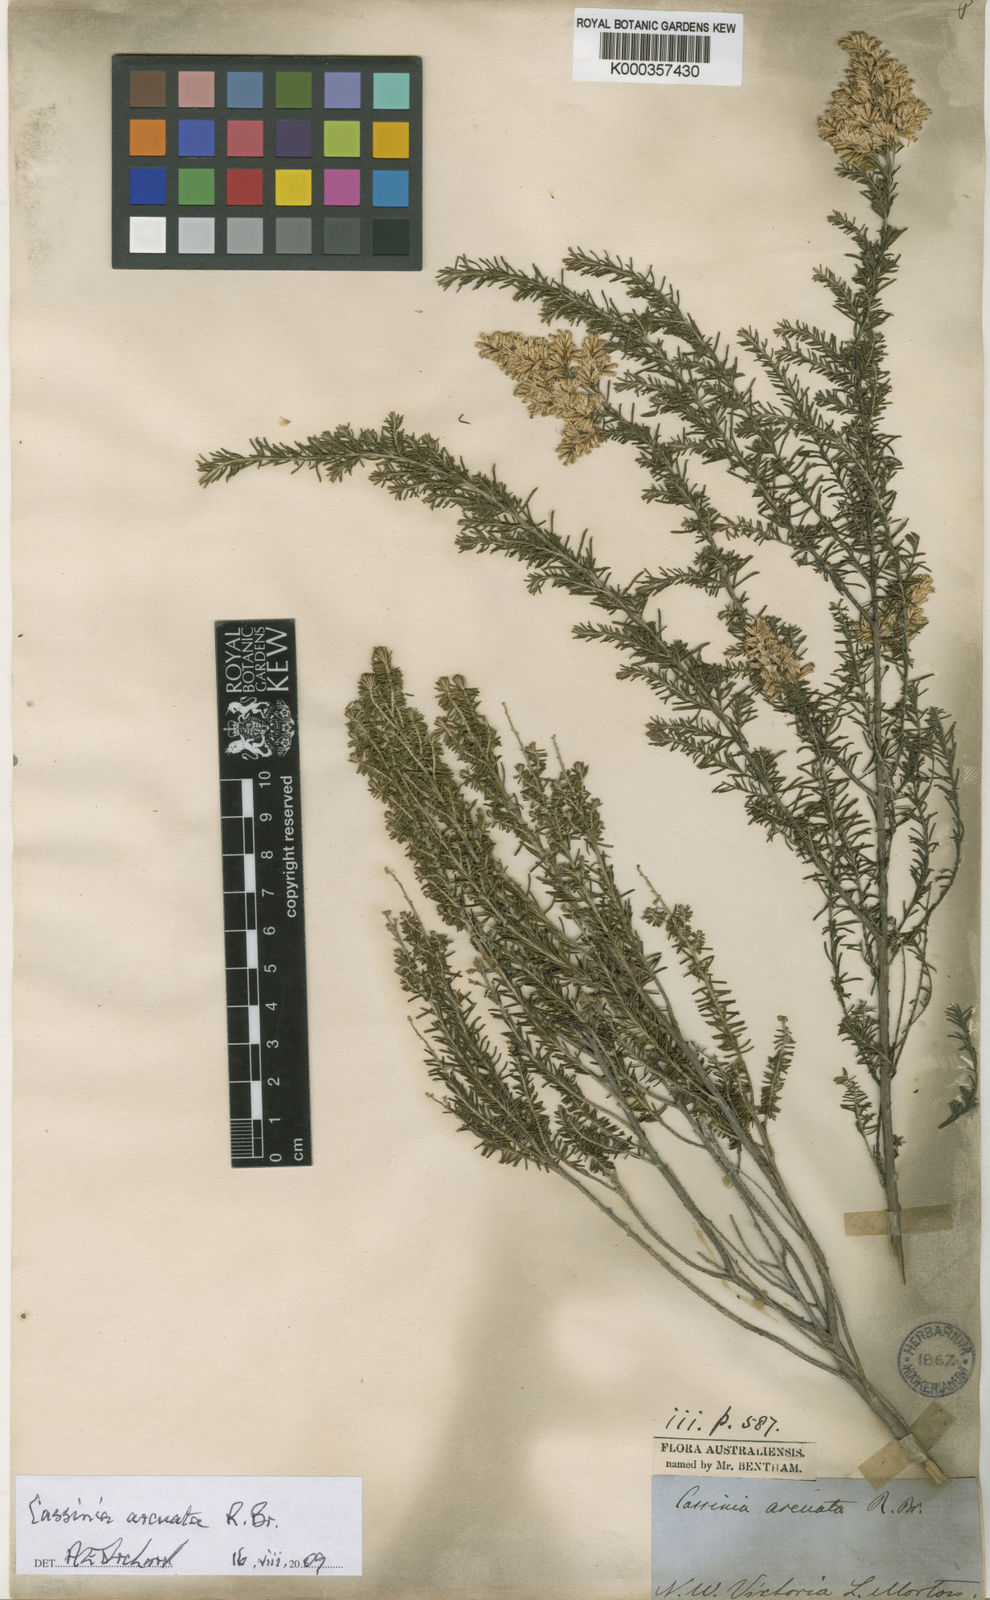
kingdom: Plantae
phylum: Tracheophyta
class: Magnoliopsida
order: Asterales
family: Asteraceae
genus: Cassinia
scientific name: Cassinia arcuata
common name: Chineseshrub
